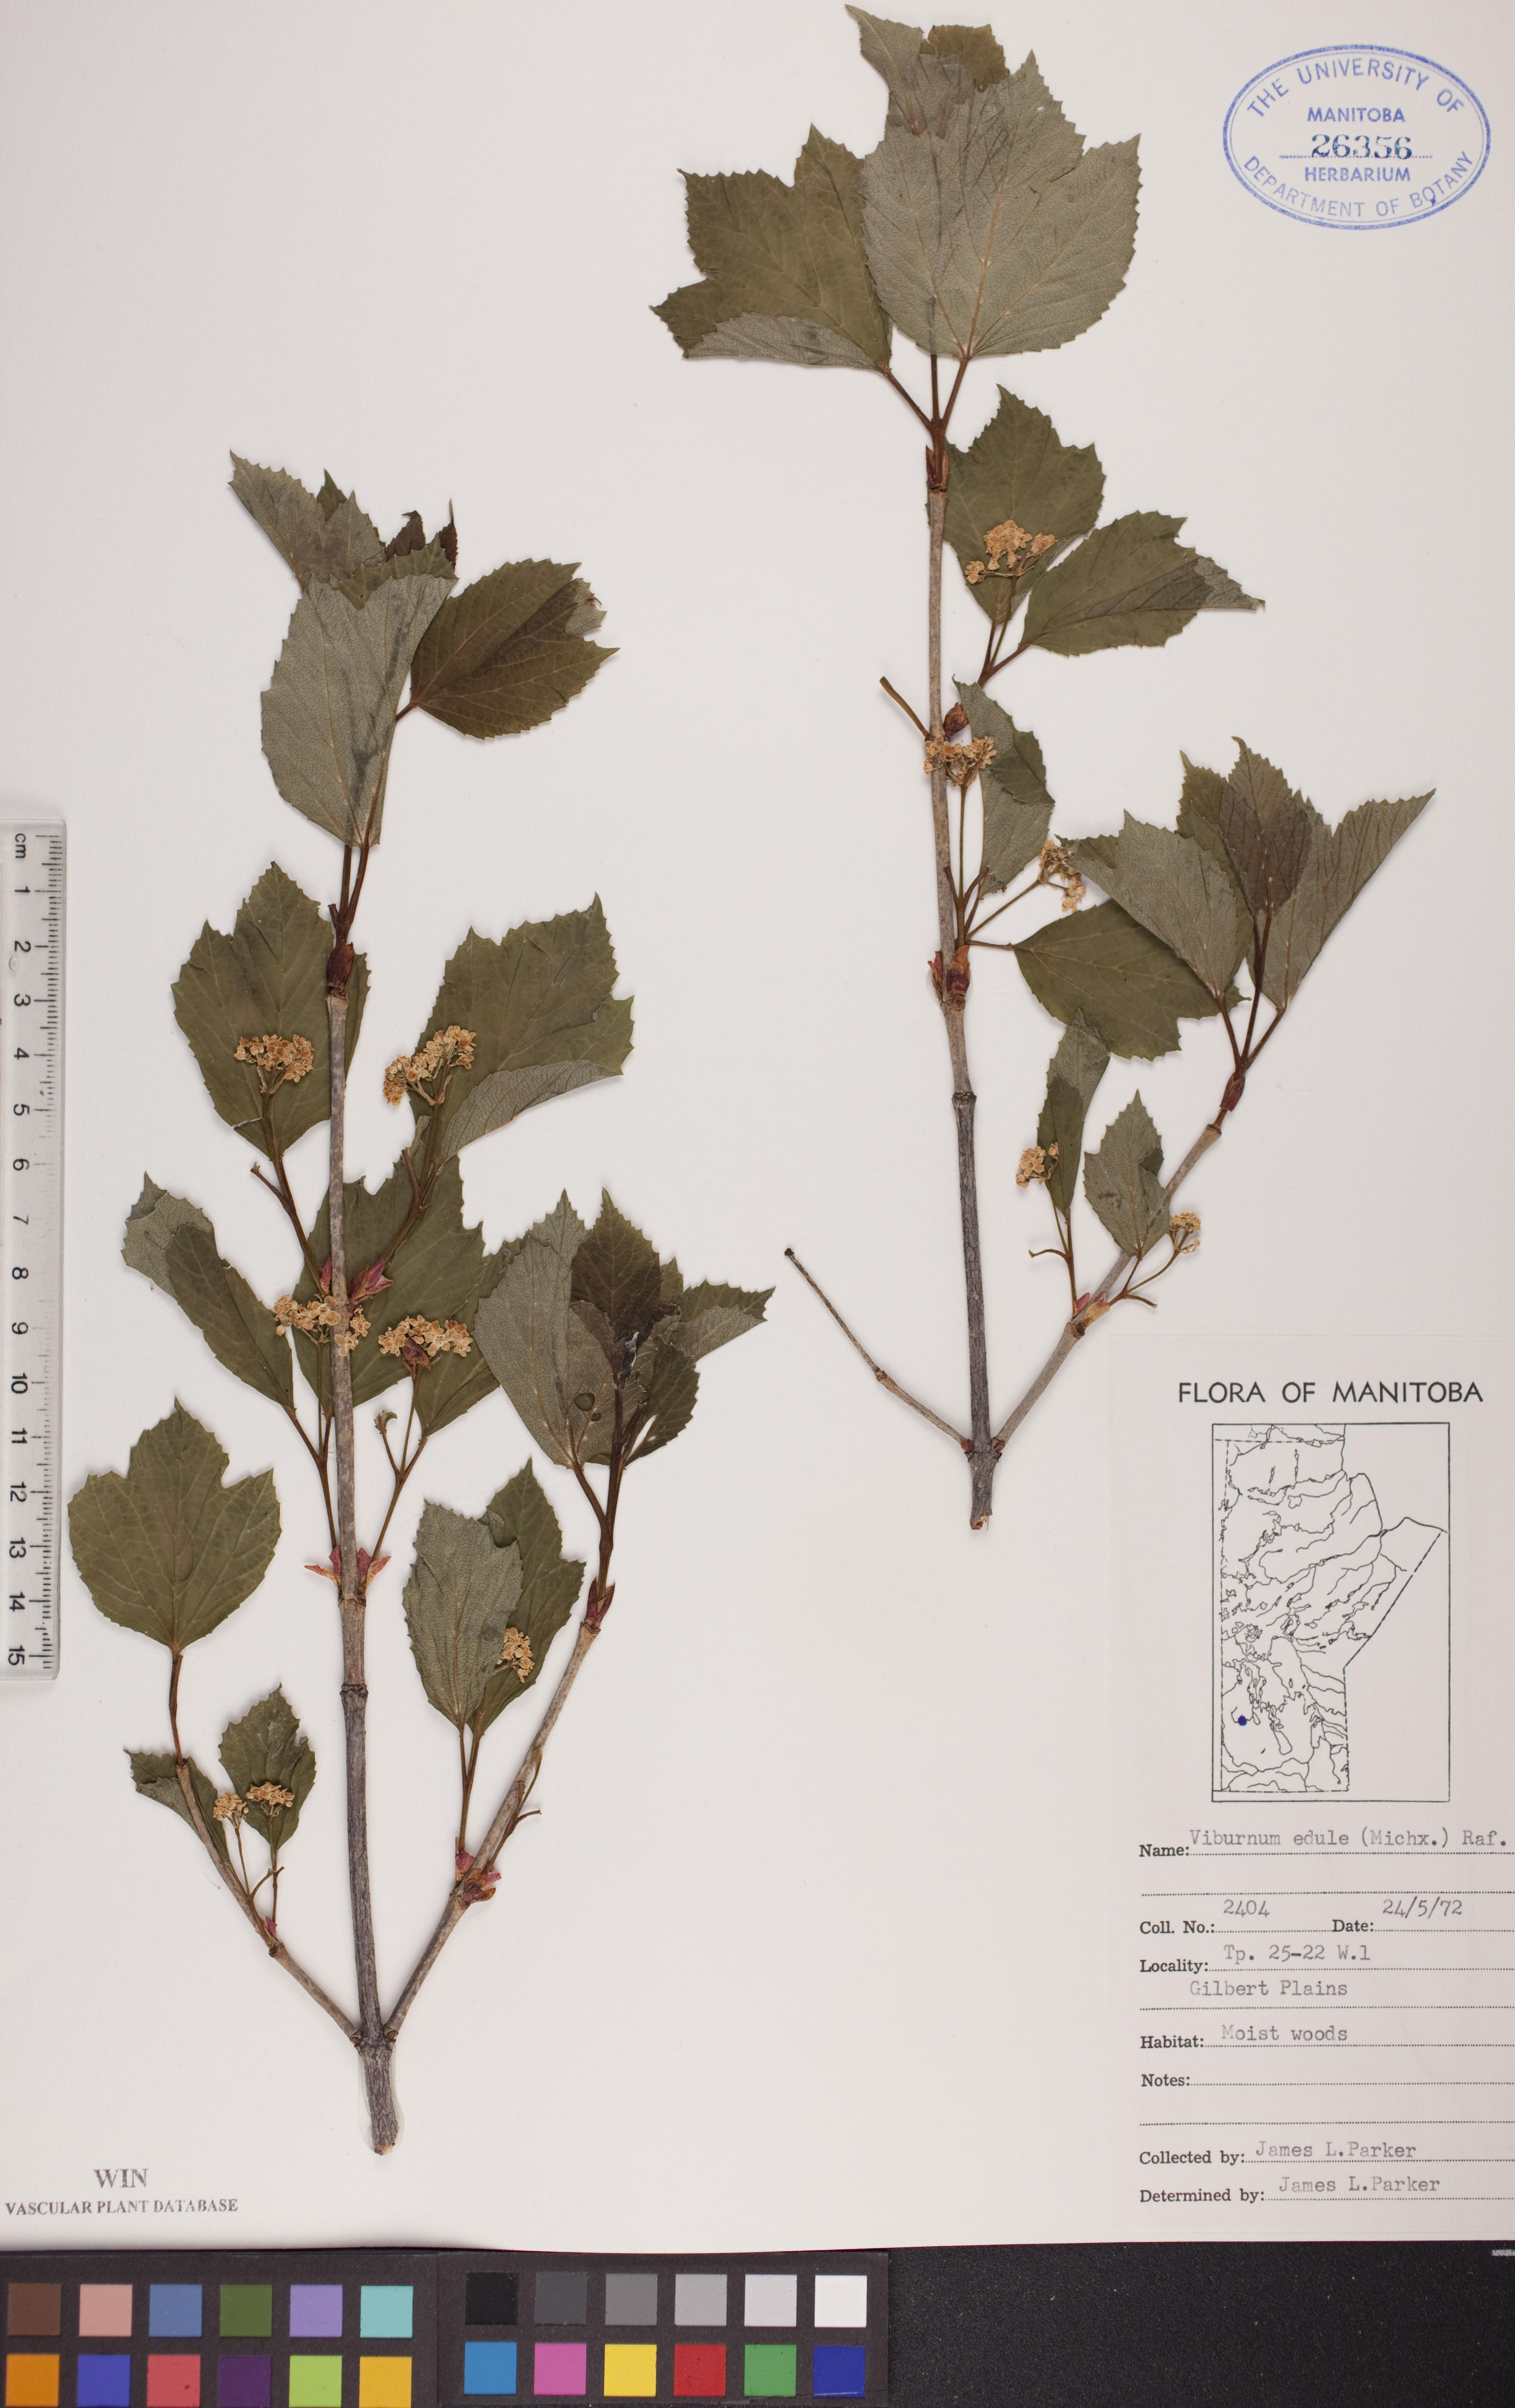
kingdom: Plantae
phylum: Tracheophyta
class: Magnoliopsida
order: Dipsacales
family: Viburnaceae
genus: Viburnum
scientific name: Viburnum edule
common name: Mooseberry
